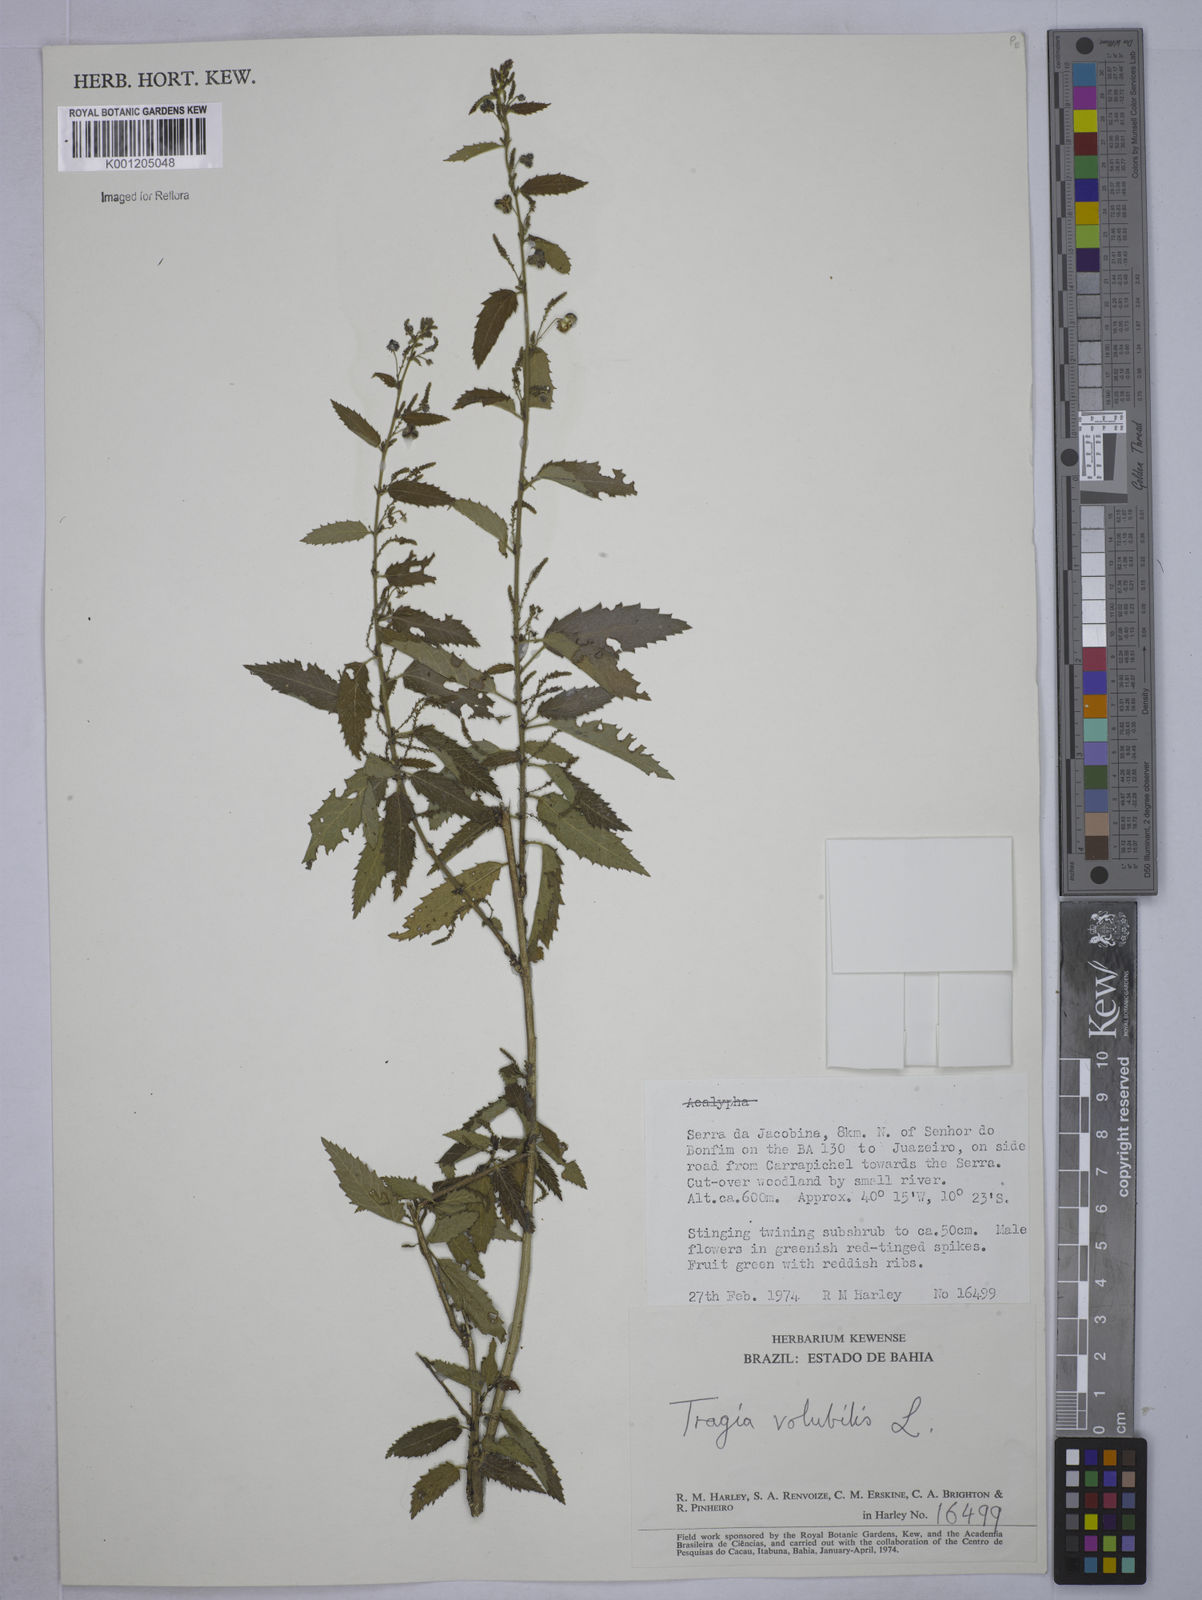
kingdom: Plantae
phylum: Tracheophyta
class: Magnoliopsida
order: Malpighiales
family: Euphorbiaceae
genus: Tragia
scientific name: Tragia volubilis
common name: Twining cow-itch
